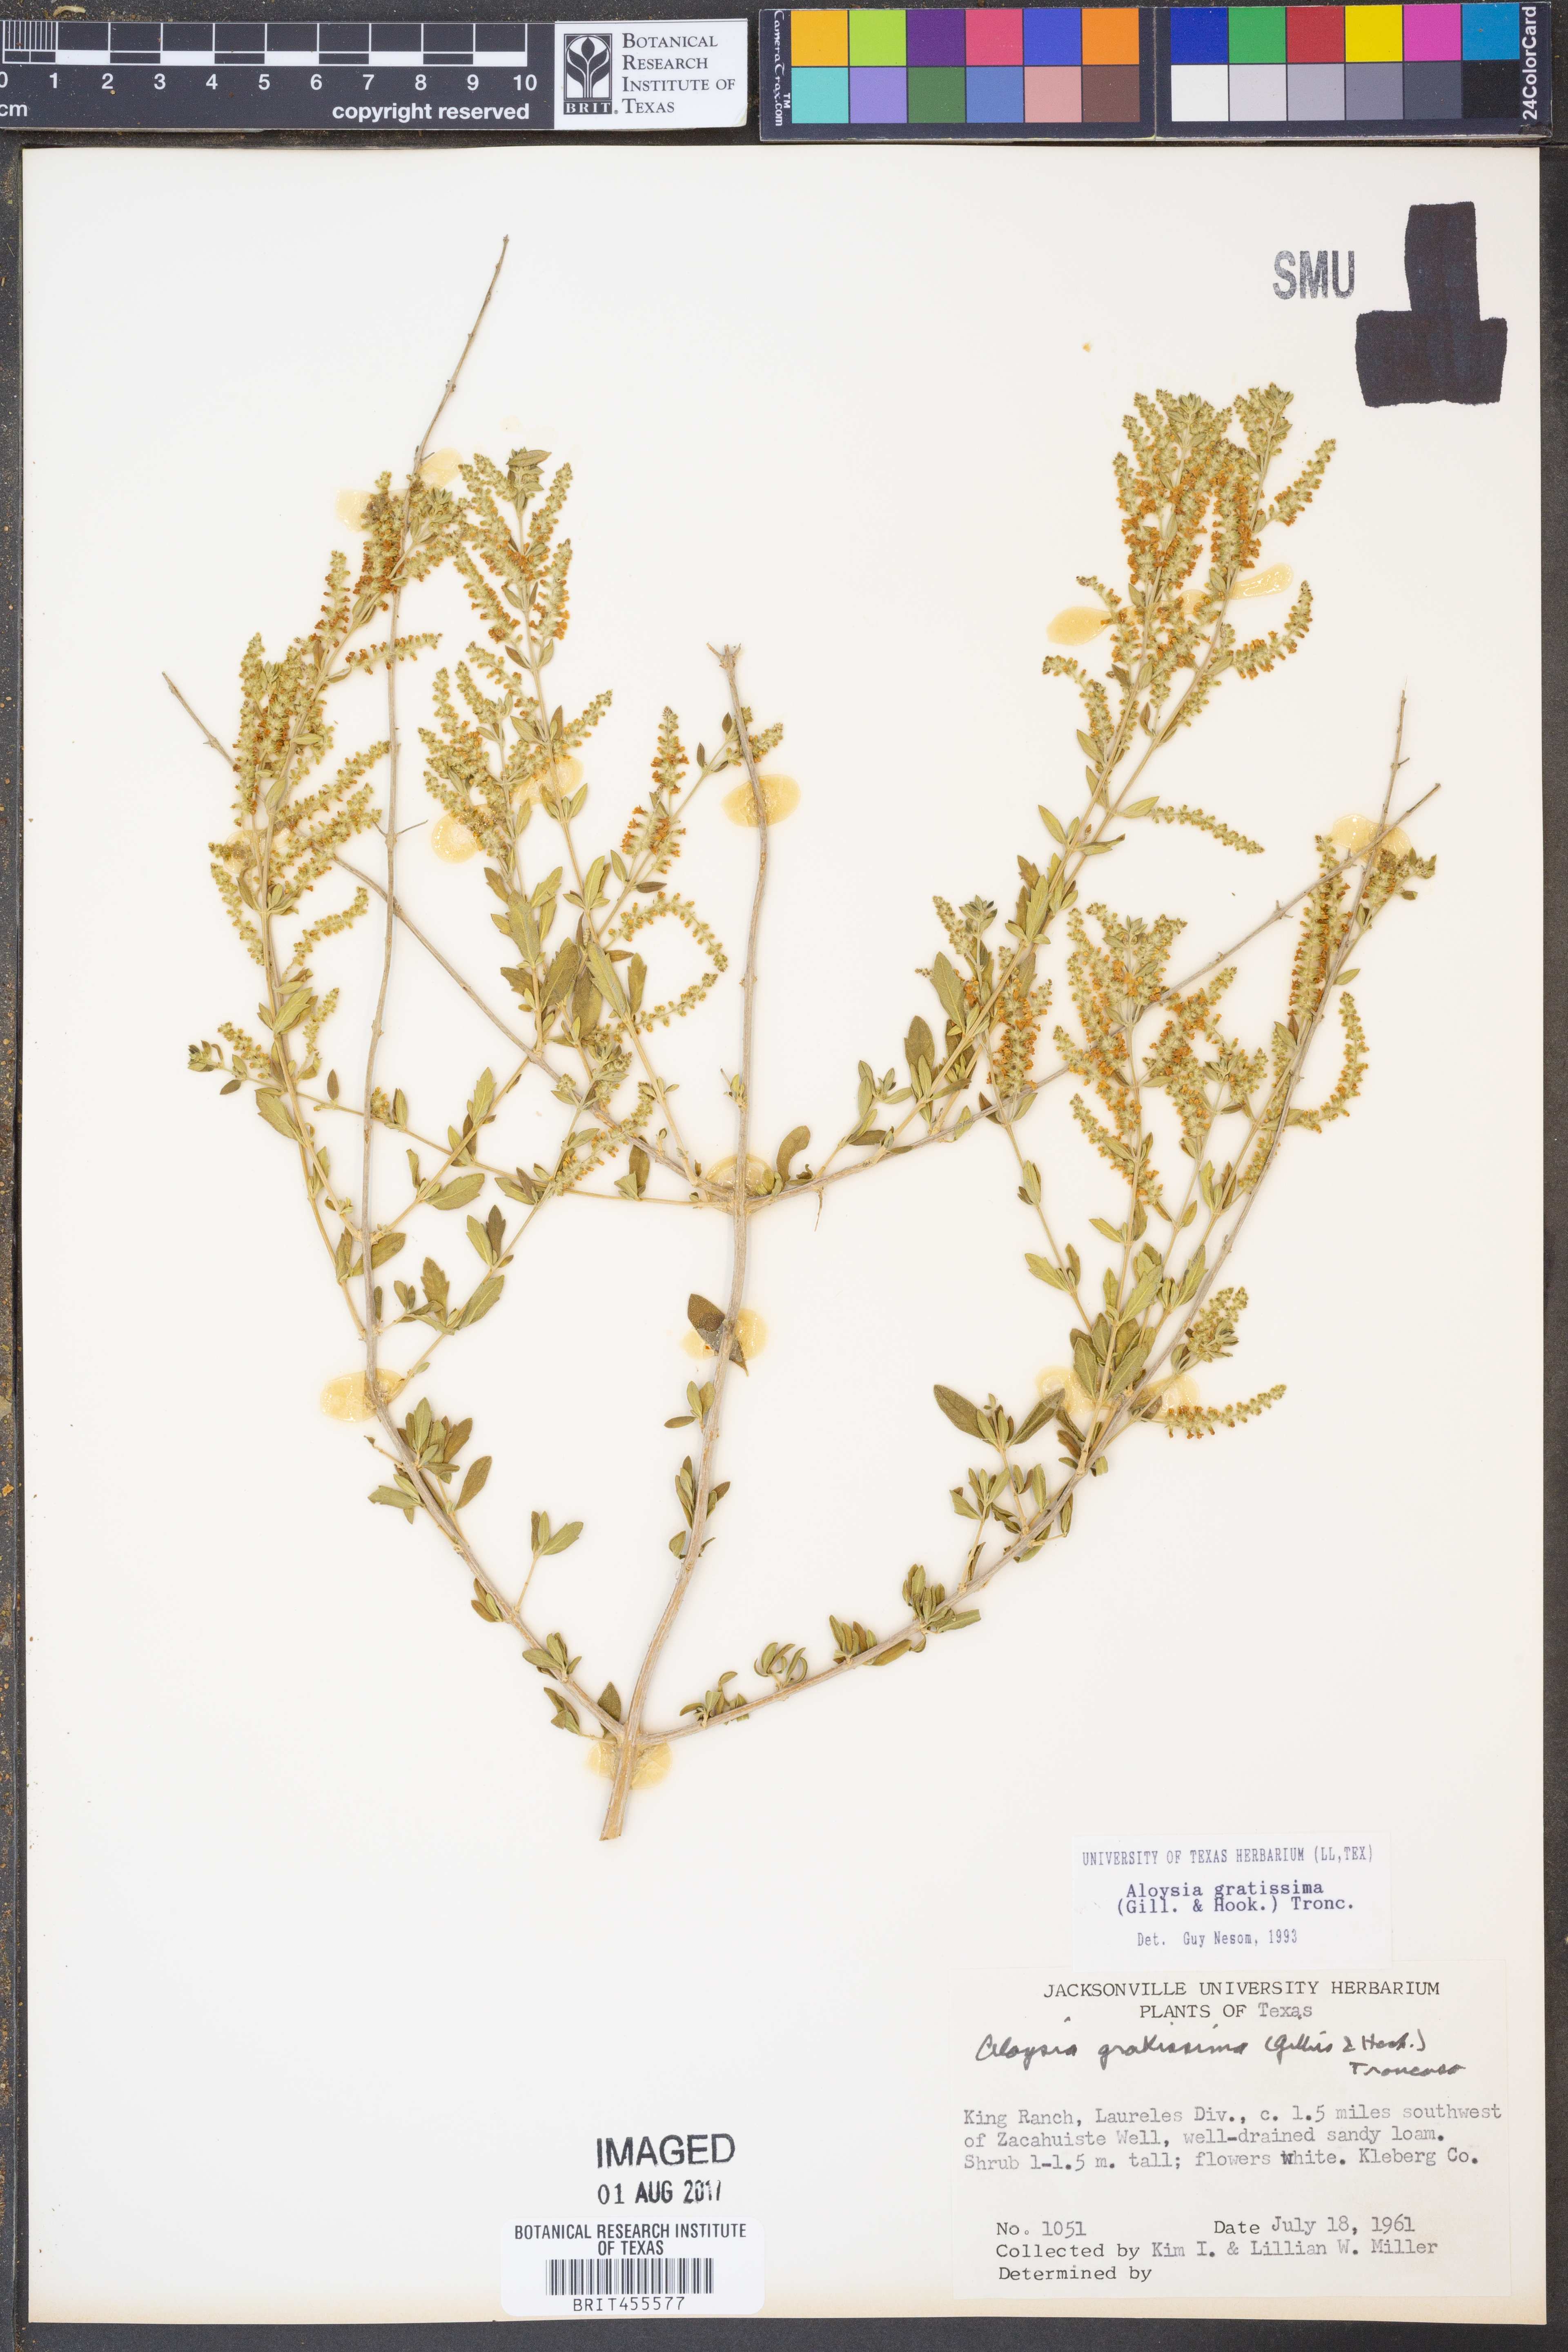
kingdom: Plantae
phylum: Tracheophyta
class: Magnoliopsida
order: Lamiales
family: Verbenaceae
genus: Aloysia
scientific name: Aloysia gratissima
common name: Common bee-brush
